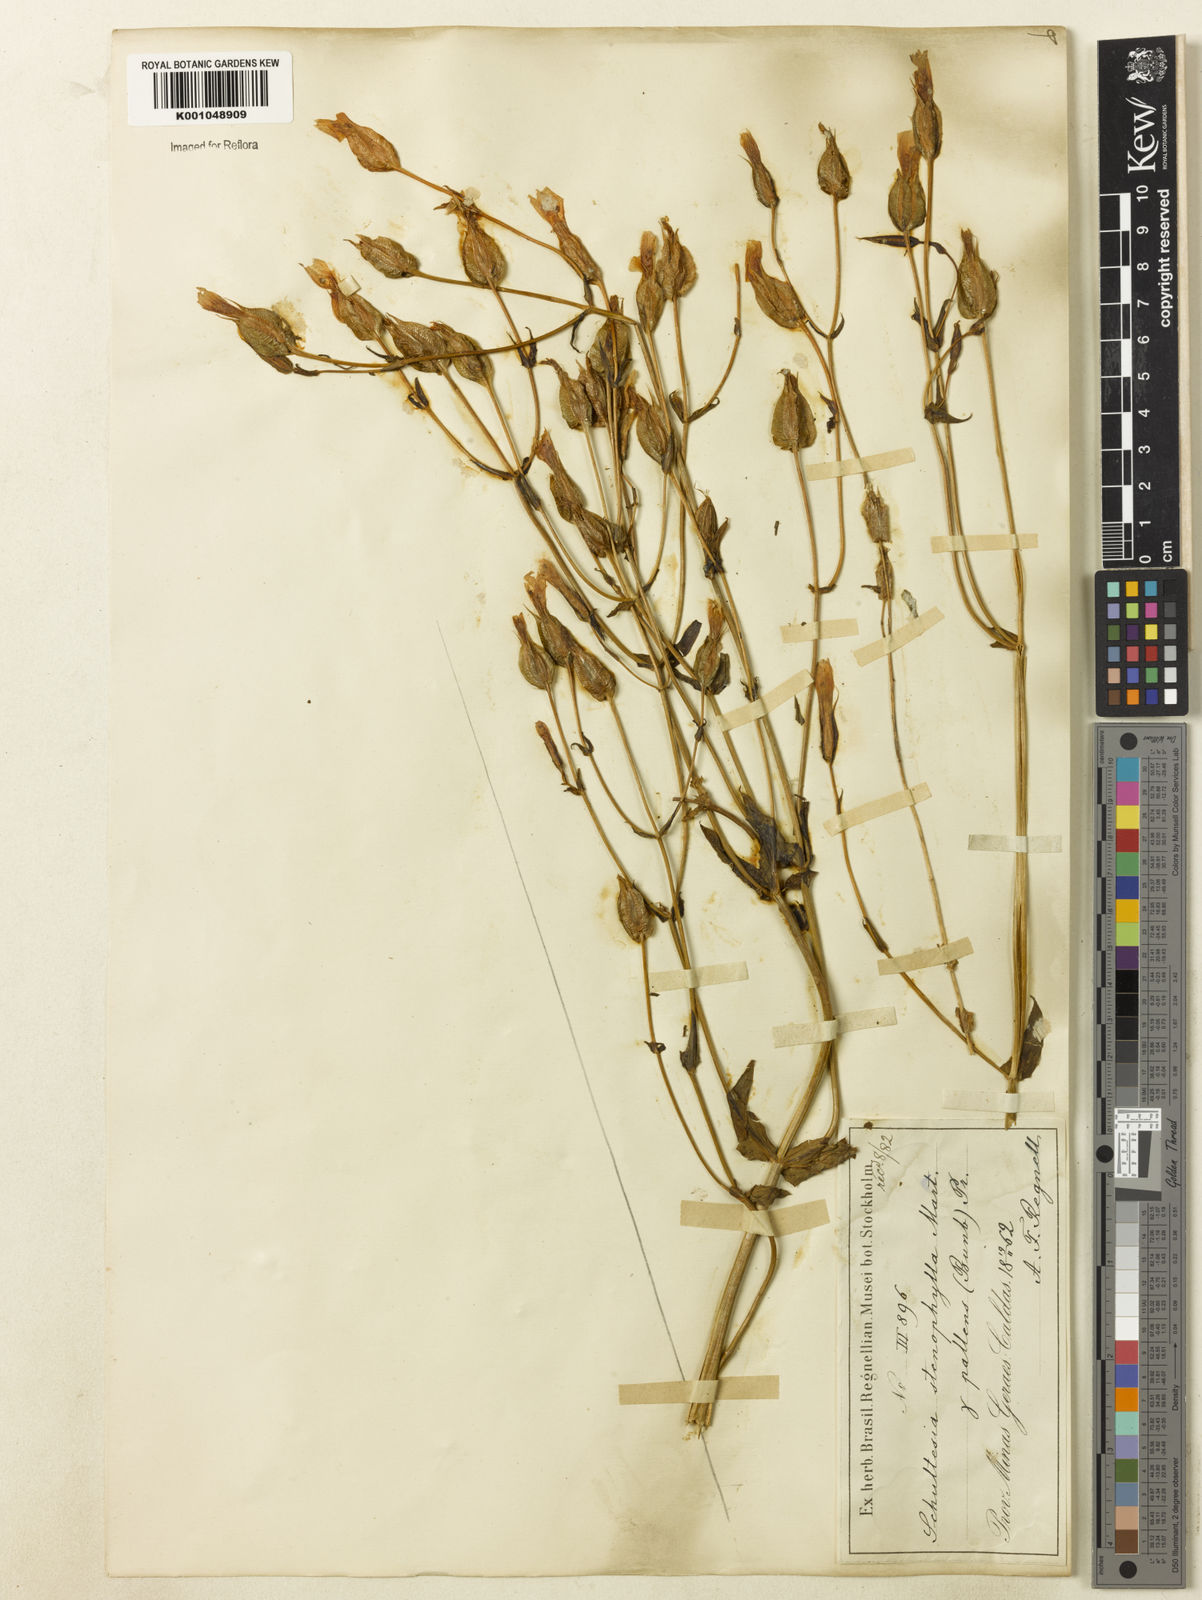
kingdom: Plantae
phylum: Tracheophyta
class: Magnoliopsida
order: Gentianales
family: Gentianaceae
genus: Schultesia
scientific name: Schultesia
